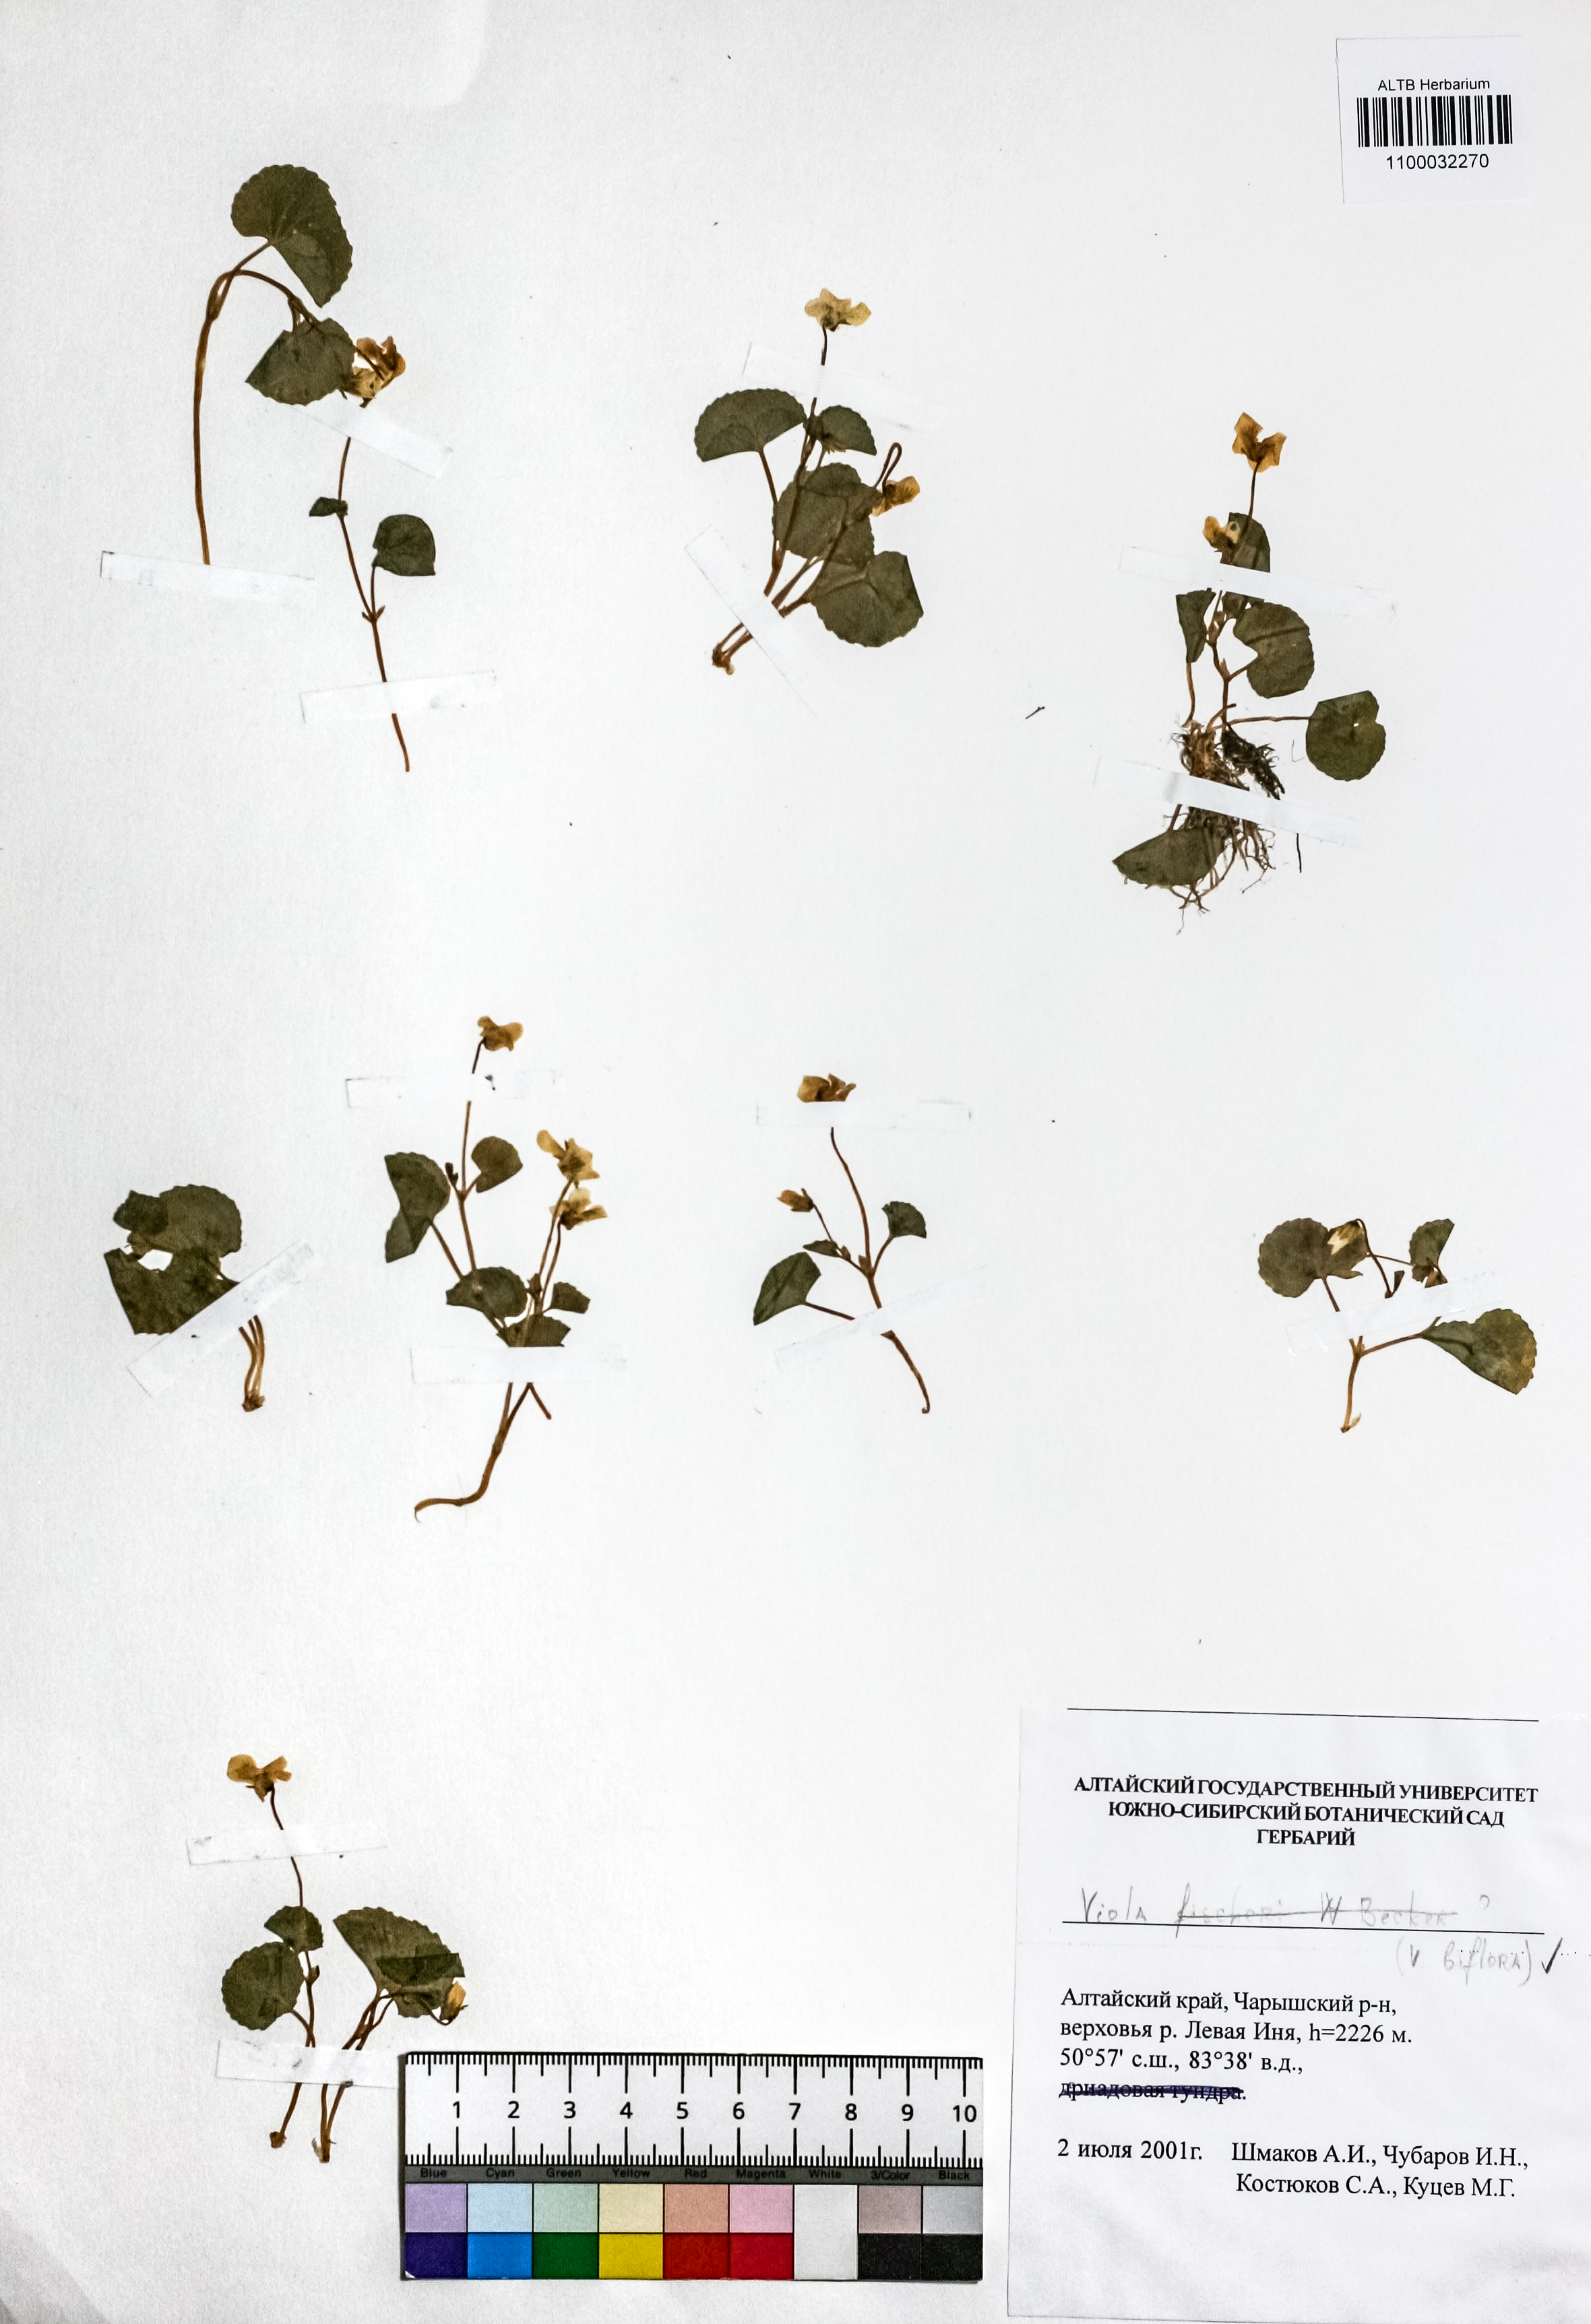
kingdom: Plantae
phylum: Tracheophyta
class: Magnoliopsida
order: Malpighiales
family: Violaceae
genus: Viola
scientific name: Viola biflora
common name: Alpine yellow violet
